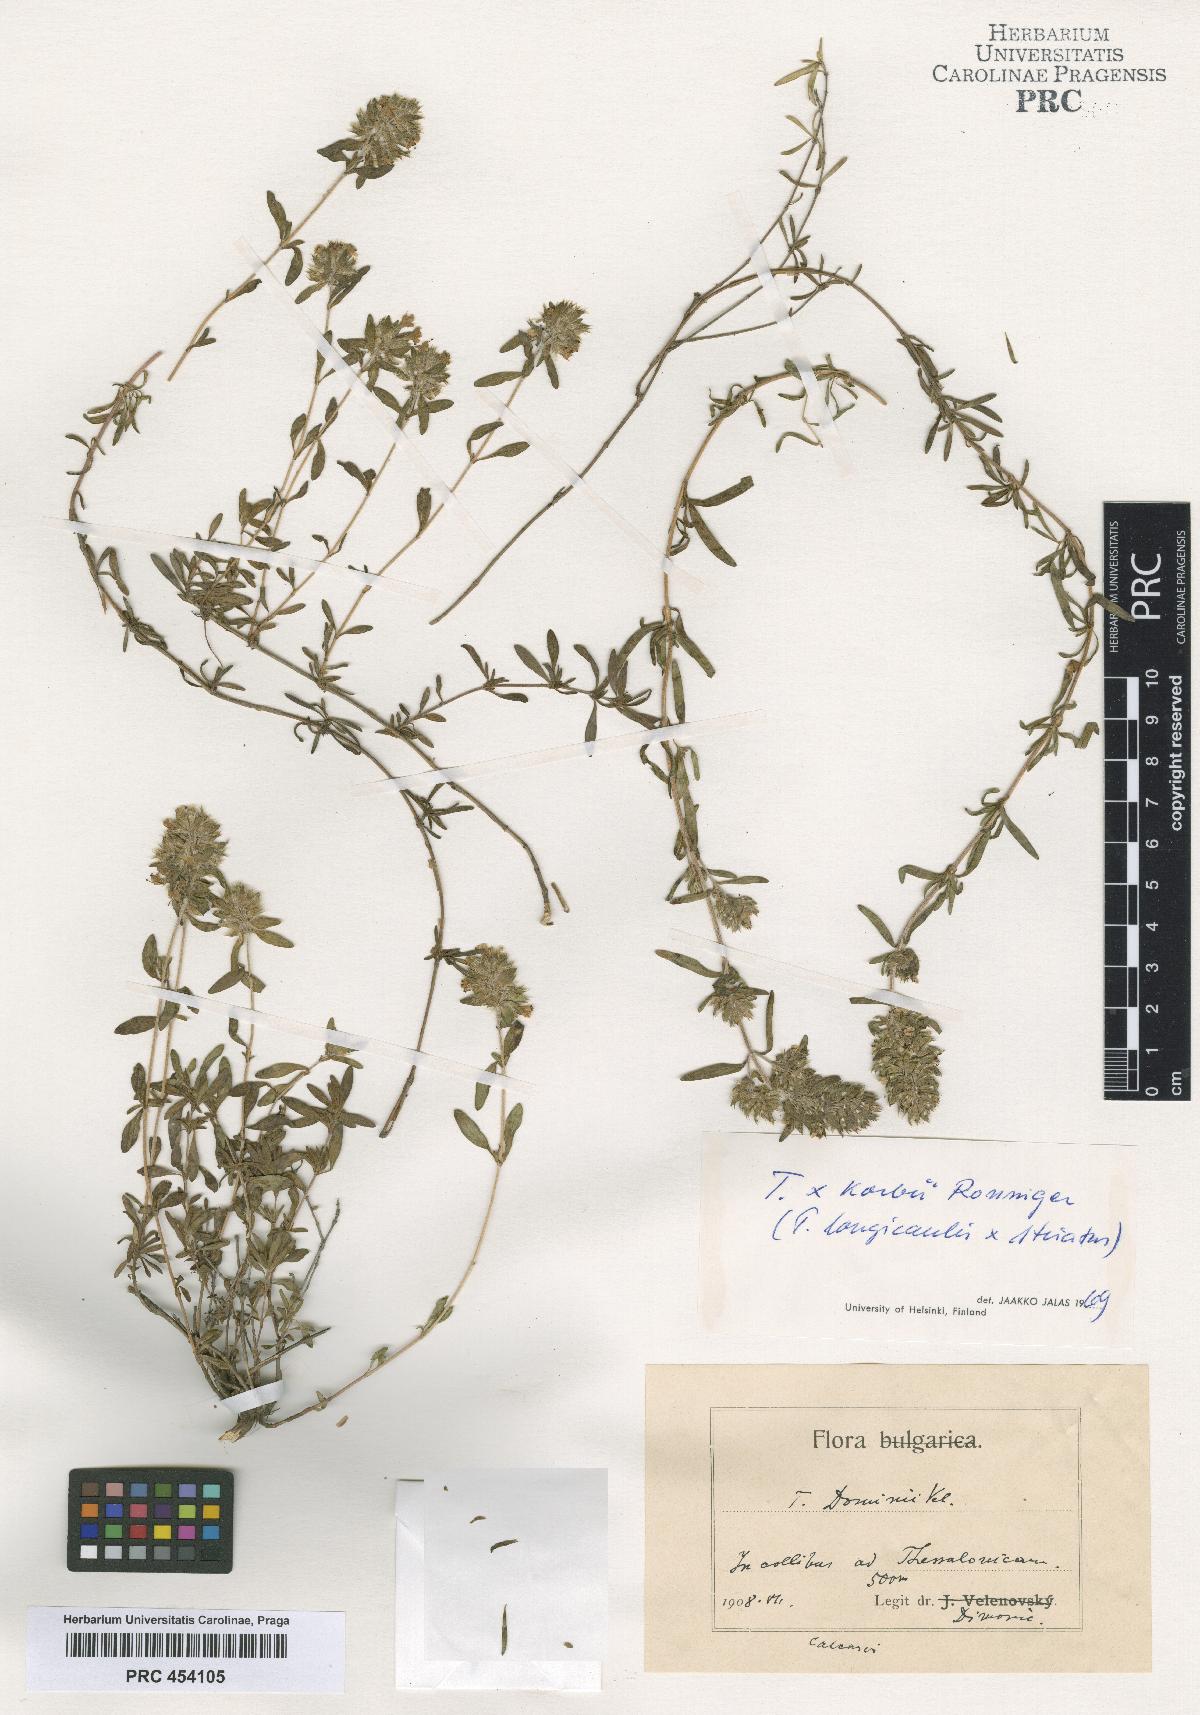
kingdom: Plantae
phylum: Tracheophyta
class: Magnoliopsida
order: Lamiales
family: Lamiaceae
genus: Thymus
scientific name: Thymus sibthorpii
